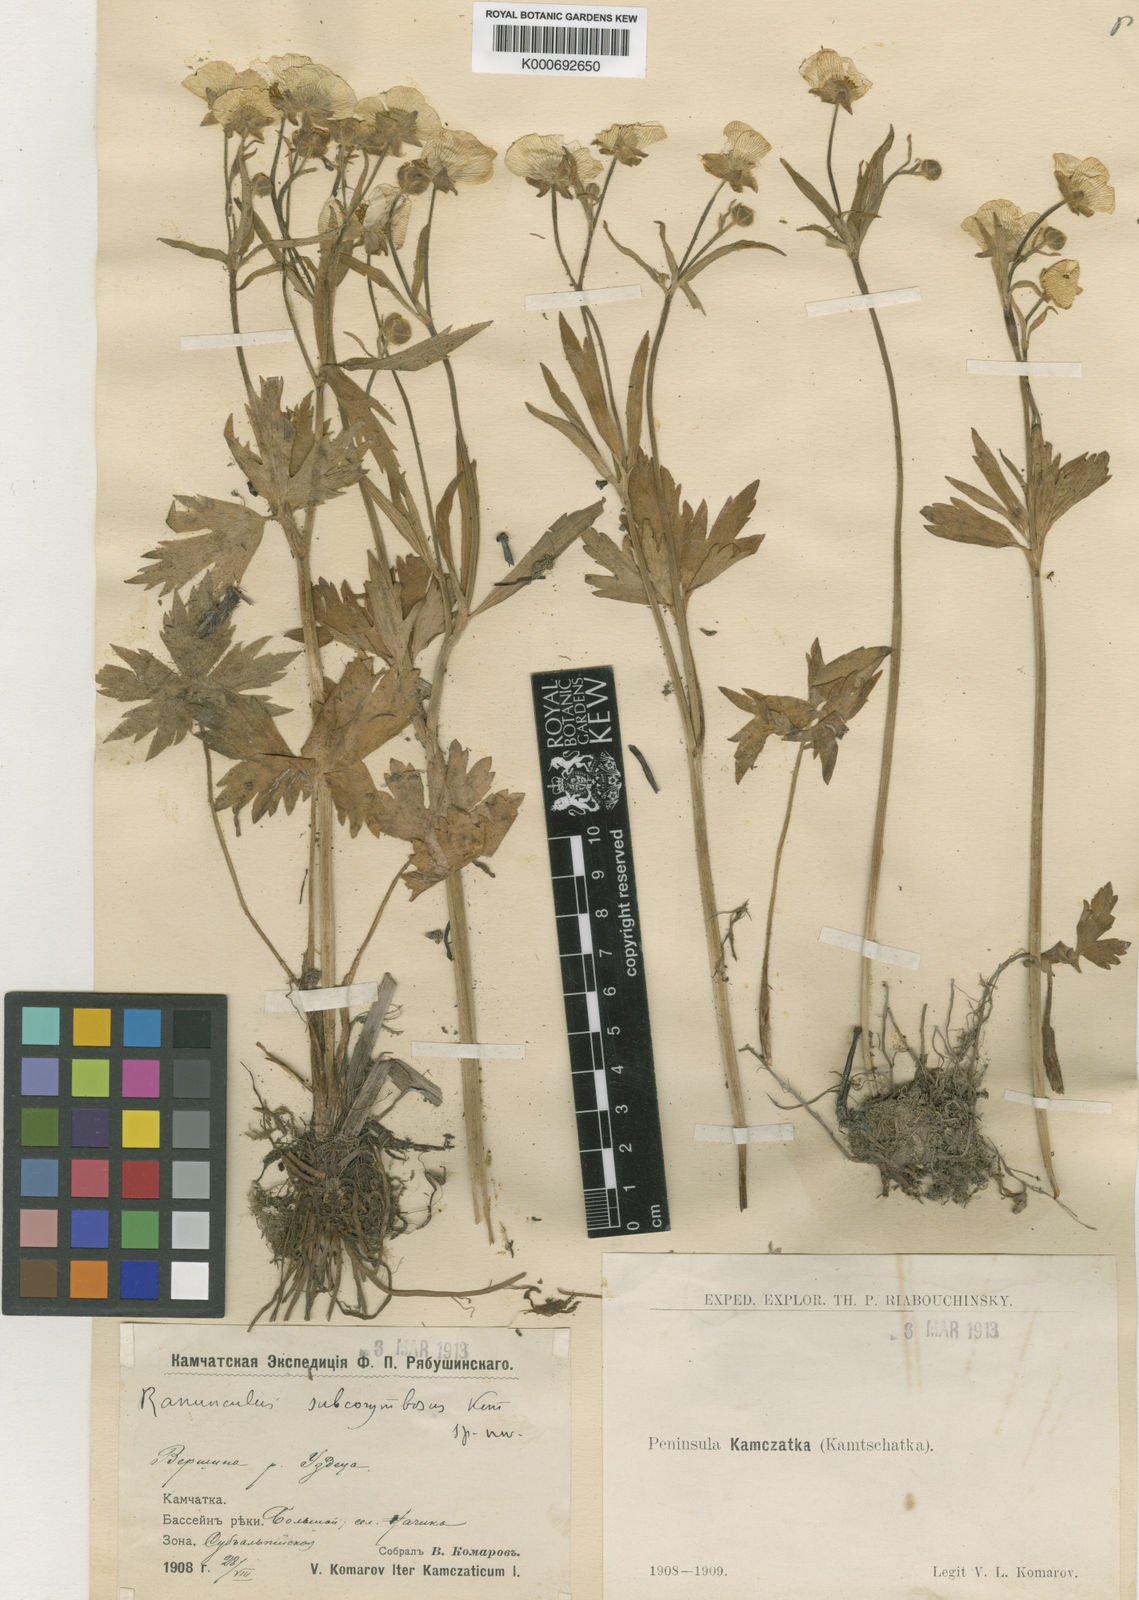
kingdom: Plantae
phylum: Tracheophyta
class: Magnoliopsida
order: Ranunculales
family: Ranunculaceae
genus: Ranunculus
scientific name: Ranunculus subcorymbosus
